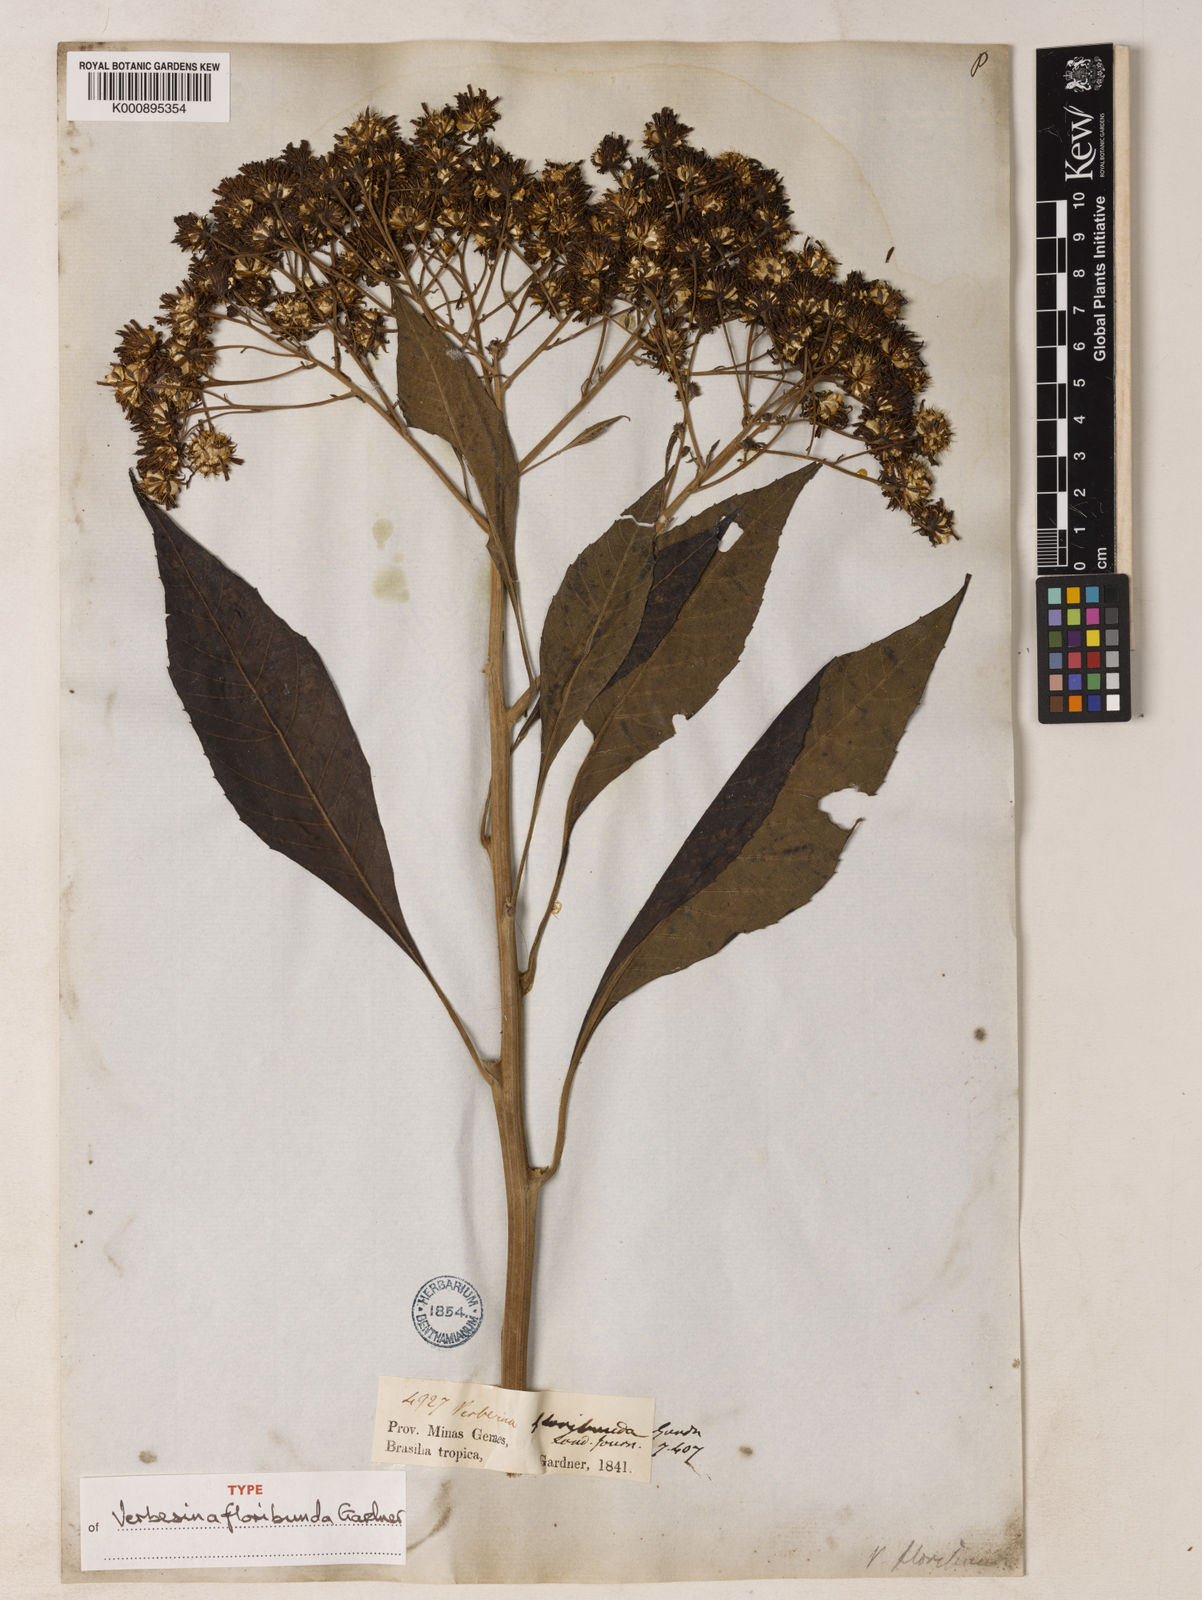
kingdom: Plantae
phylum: Tracheophyta
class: Magnoliopsida
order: Asterales
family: Asteraceae
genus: Verbesina
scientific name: Verbesina floribunda
